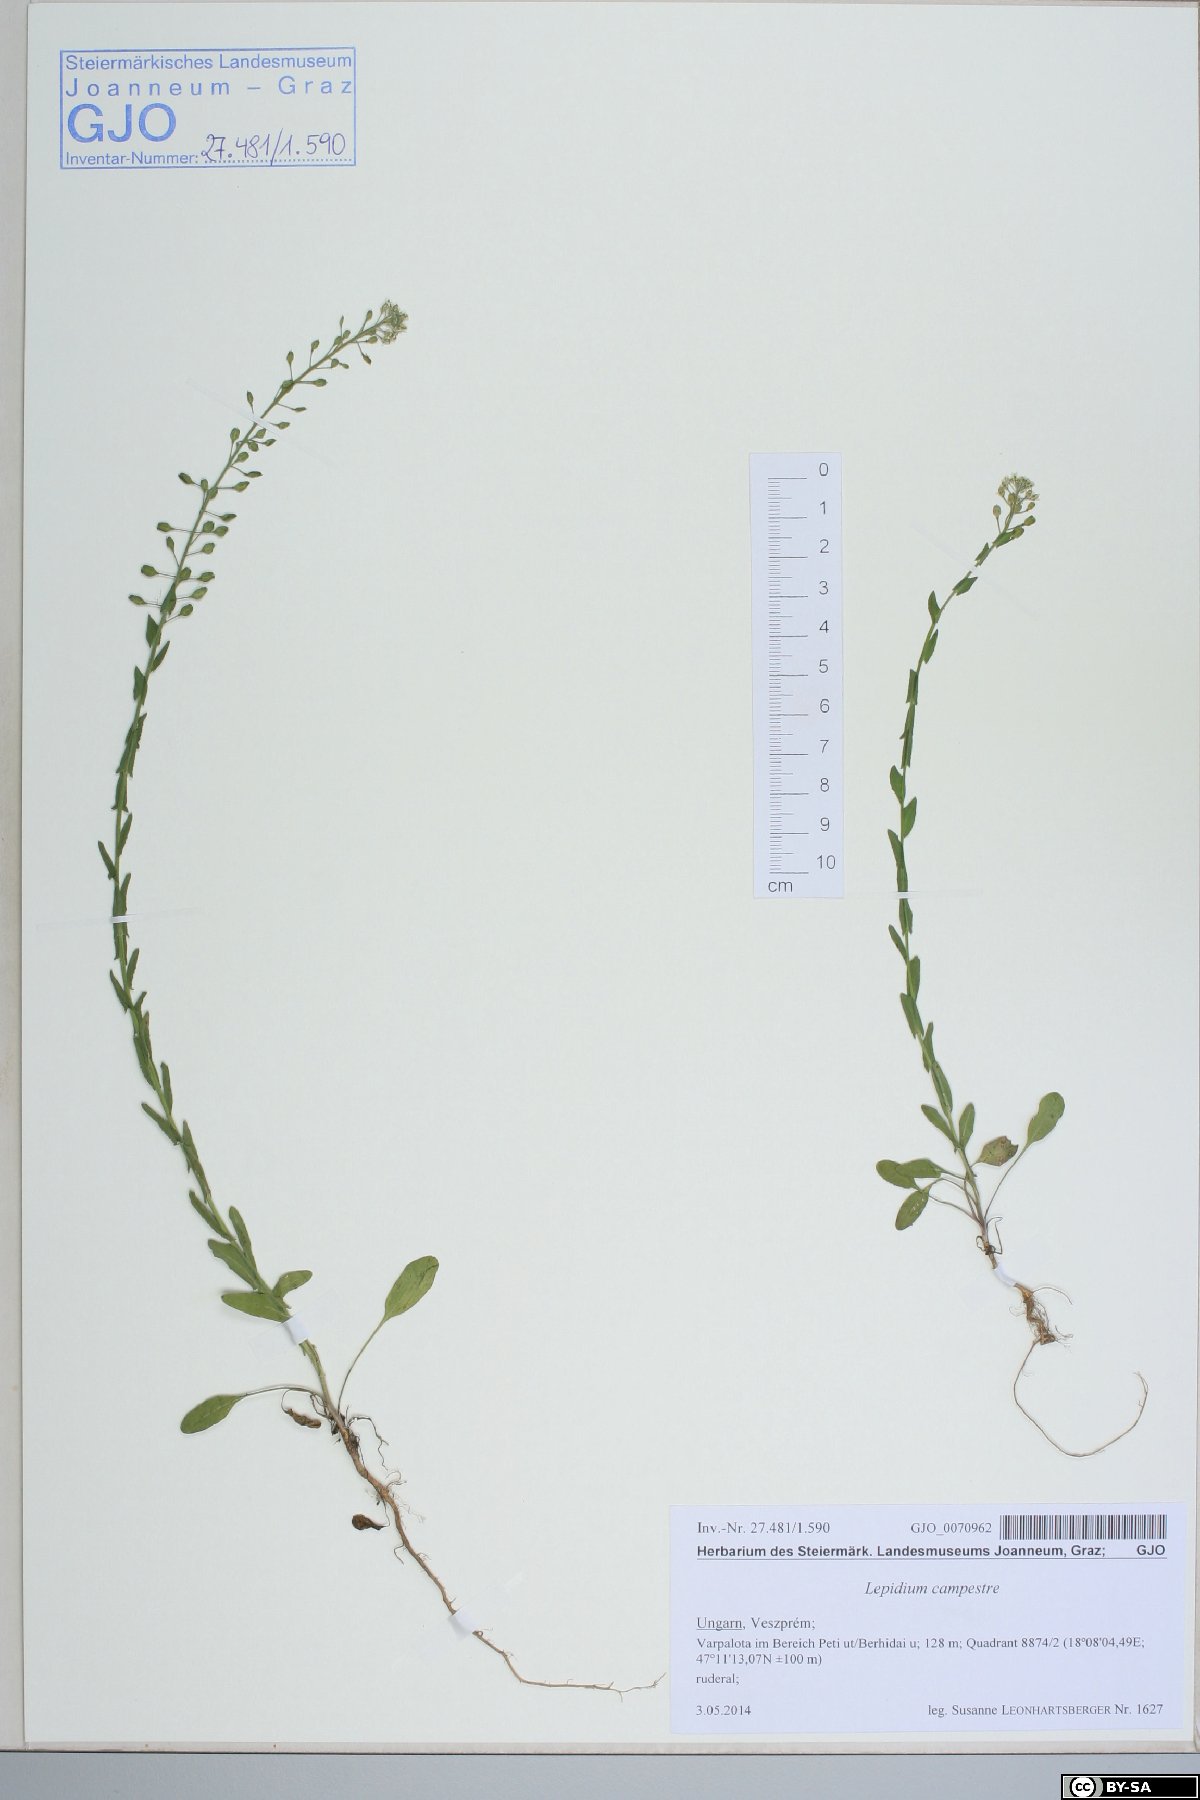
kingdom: Plantae
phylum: Tracheophyta
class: Magnoliopsida
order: Brassicales
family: Brassicaceae
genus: Lepidium
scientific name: Lepidium campestre
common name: Field pepperwort
